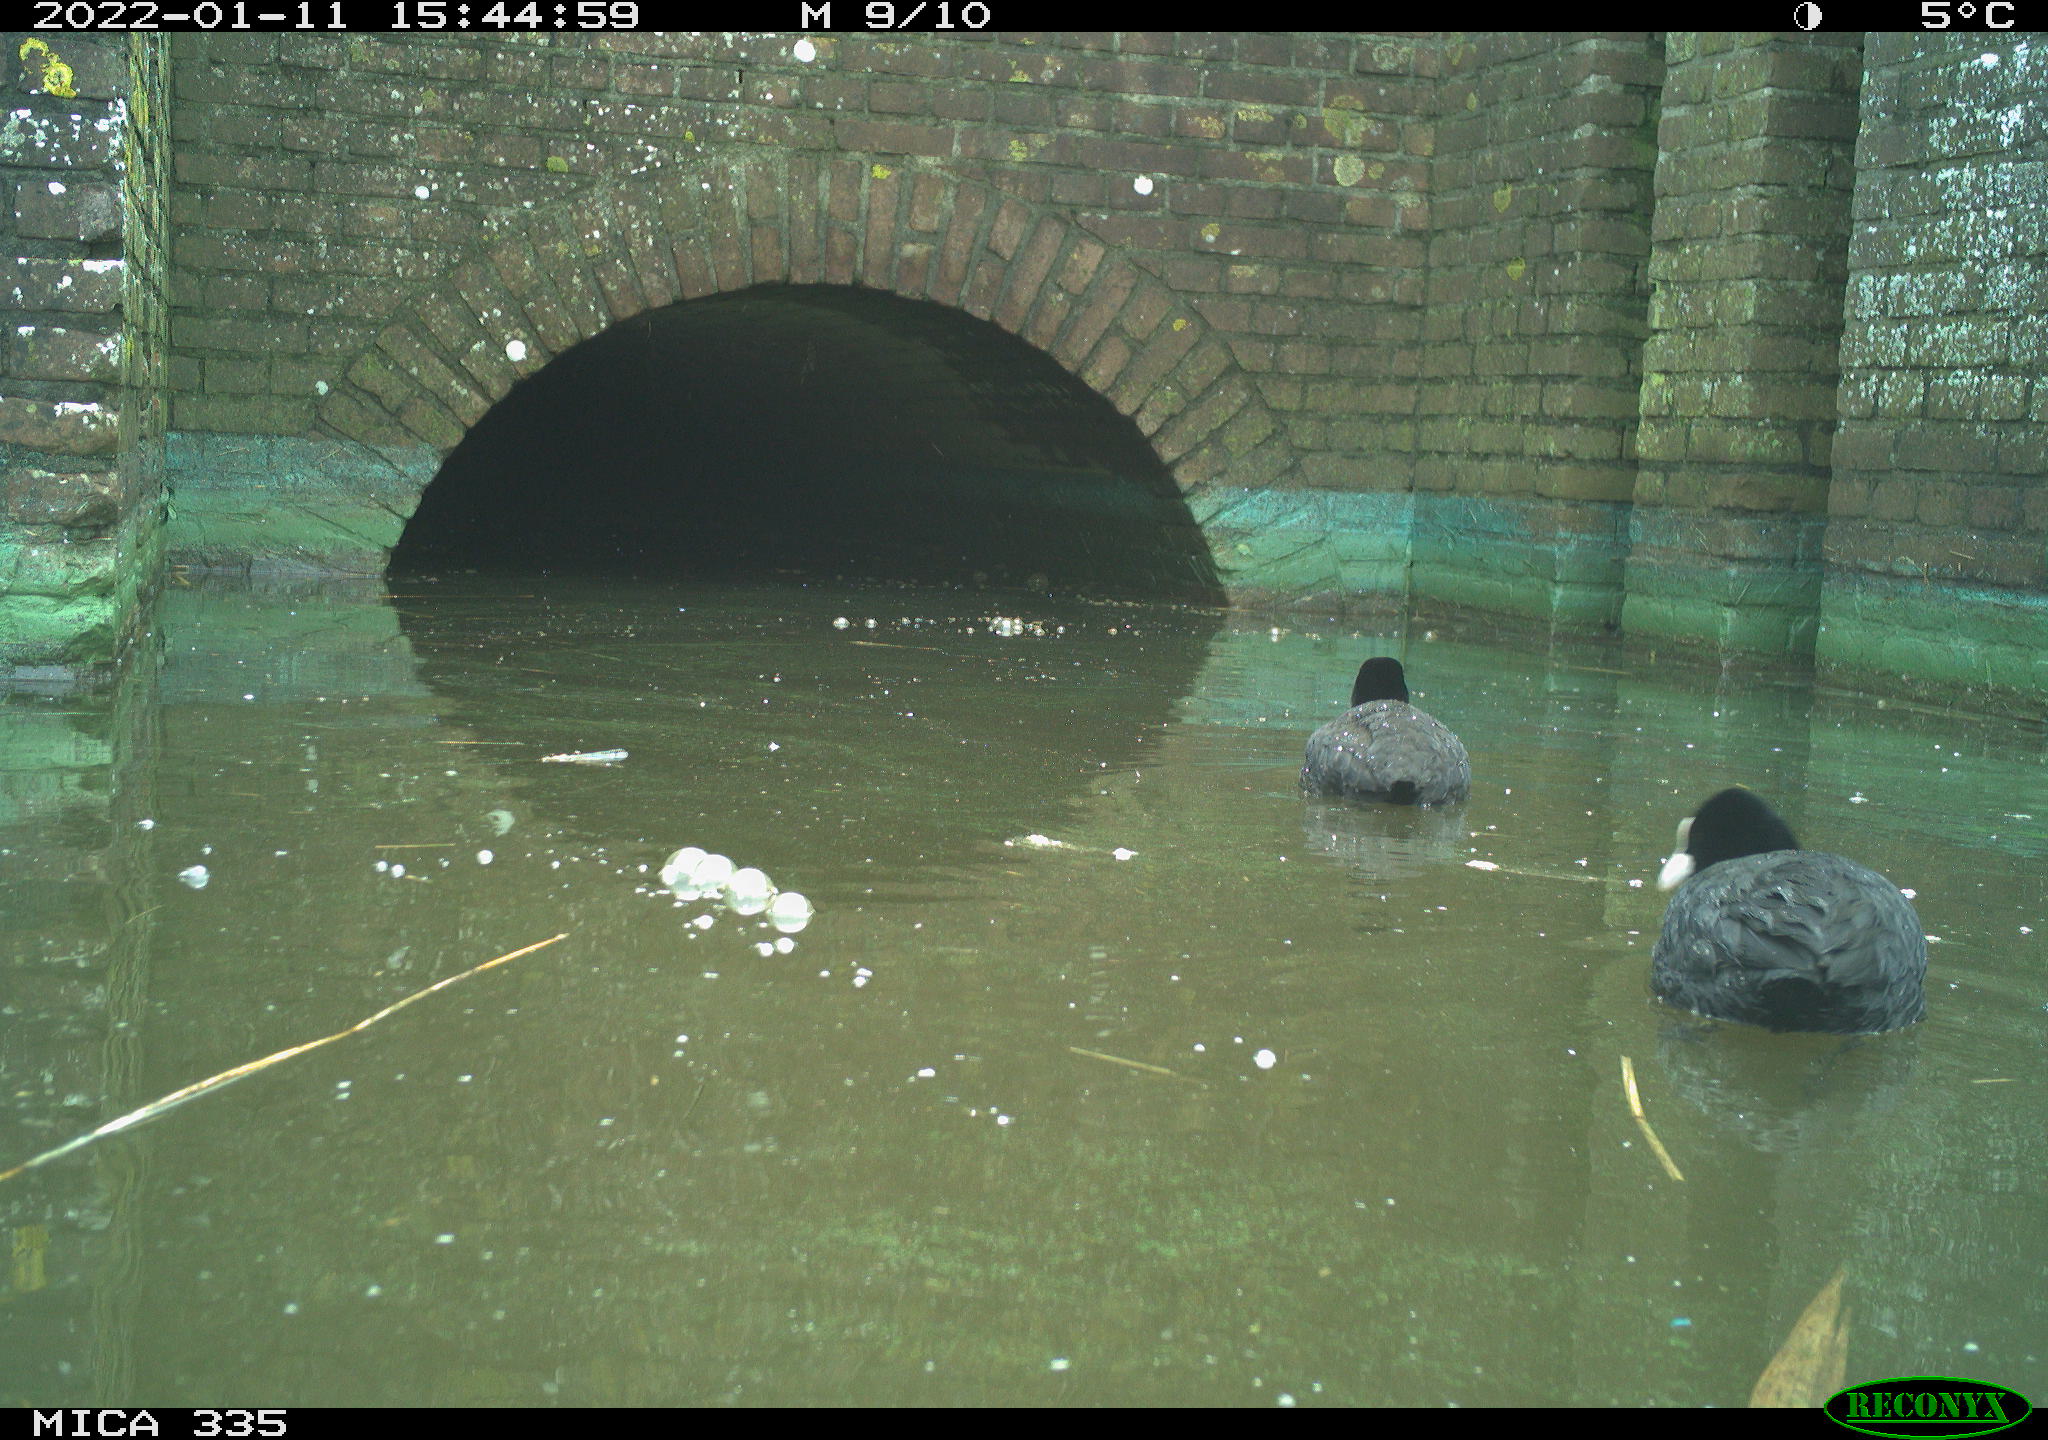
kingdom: Animalia
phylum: Chordata
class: Aves
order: Podicipediformes
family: Podicipedidae
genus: Podiceps
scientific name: Podiceps cristatus
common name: Great crested grebe
